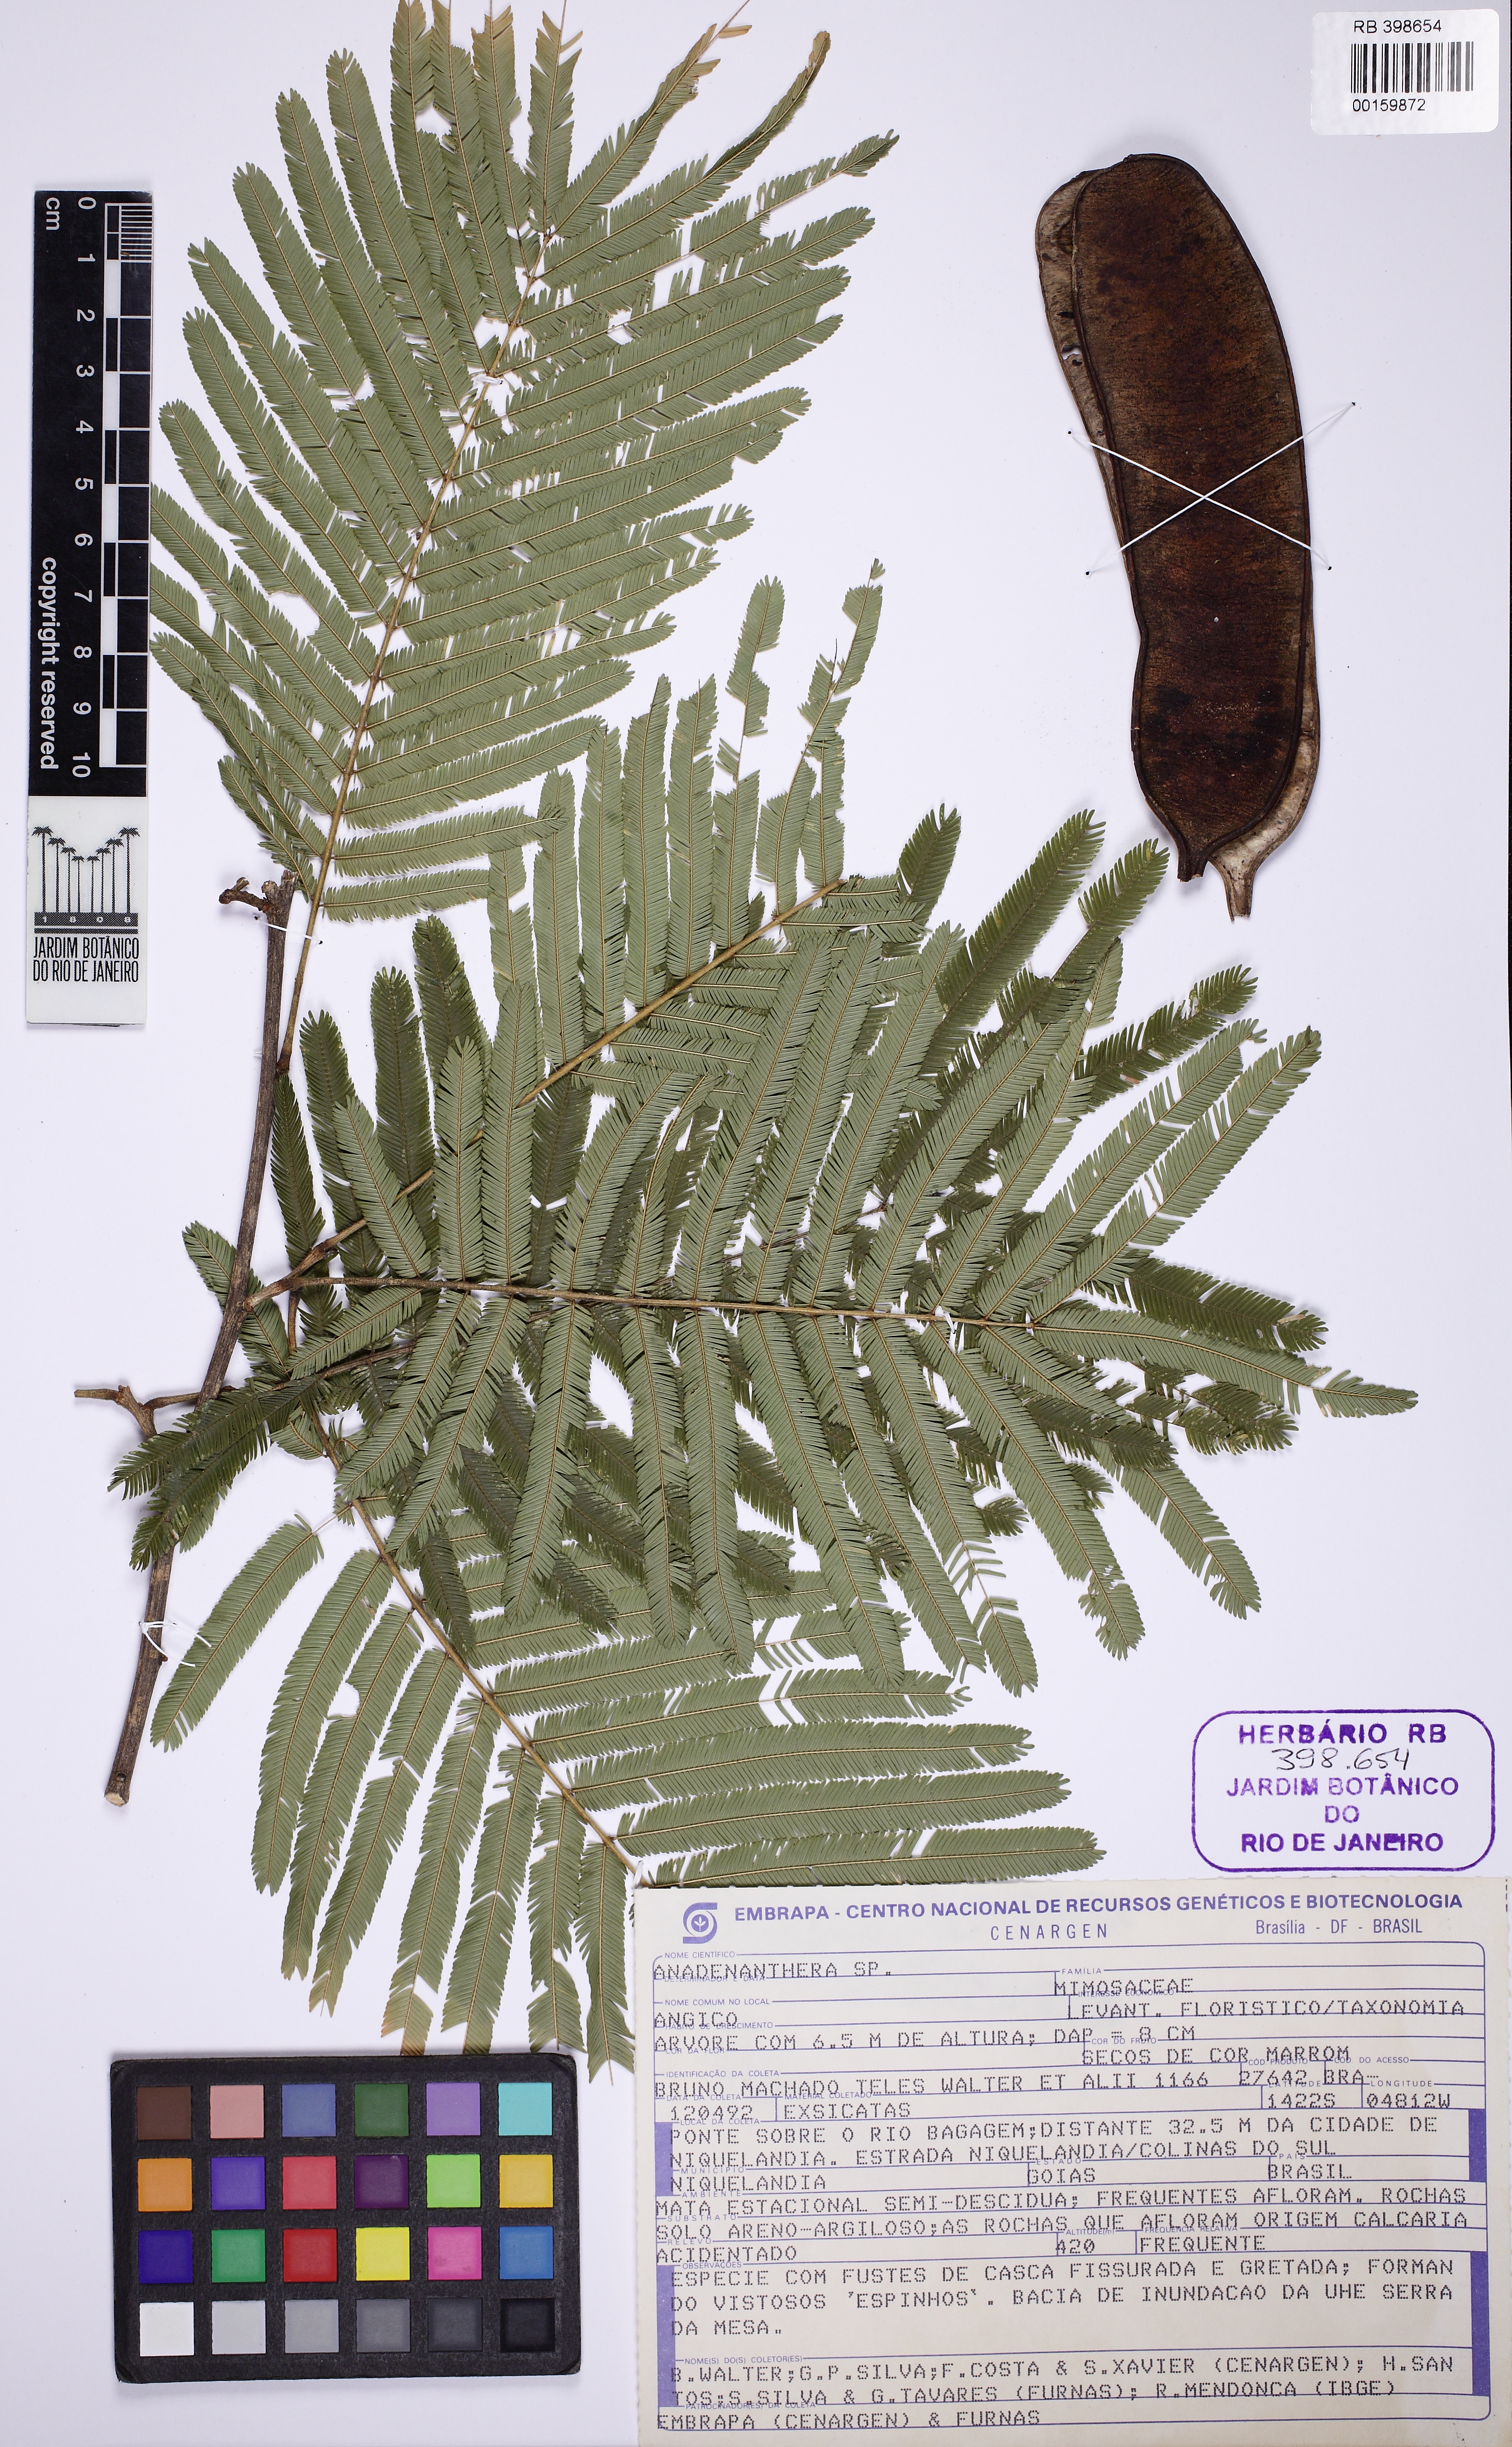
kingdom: Plantae
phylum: Tracheophyta
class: Magnoliopsida
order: Fabales
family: Fabaceae
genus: Anadenanthera
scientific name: Anadenanthera peregrina
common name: Cohoba
